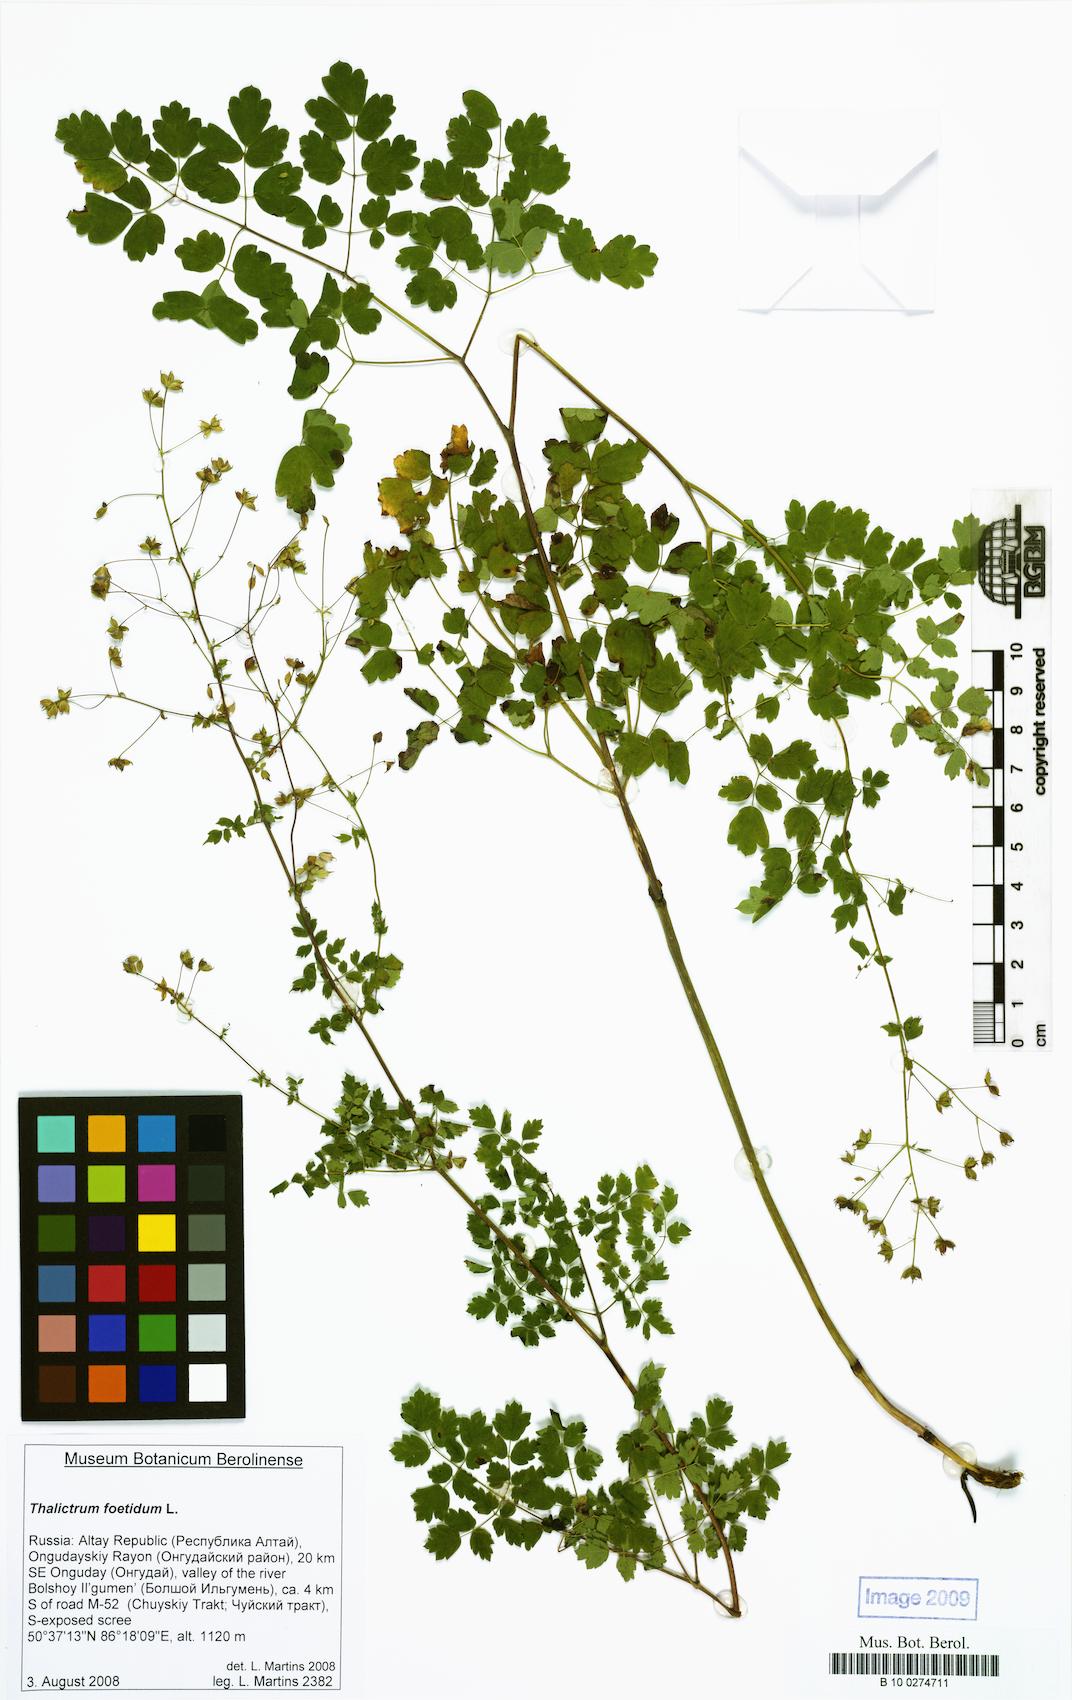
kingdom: Plantae
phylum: Tracheophyta
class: Magnoliopsida
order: Ranunculales
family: Ranunculaceae
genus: Thalictrum
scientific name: Thalictrum foetidum
